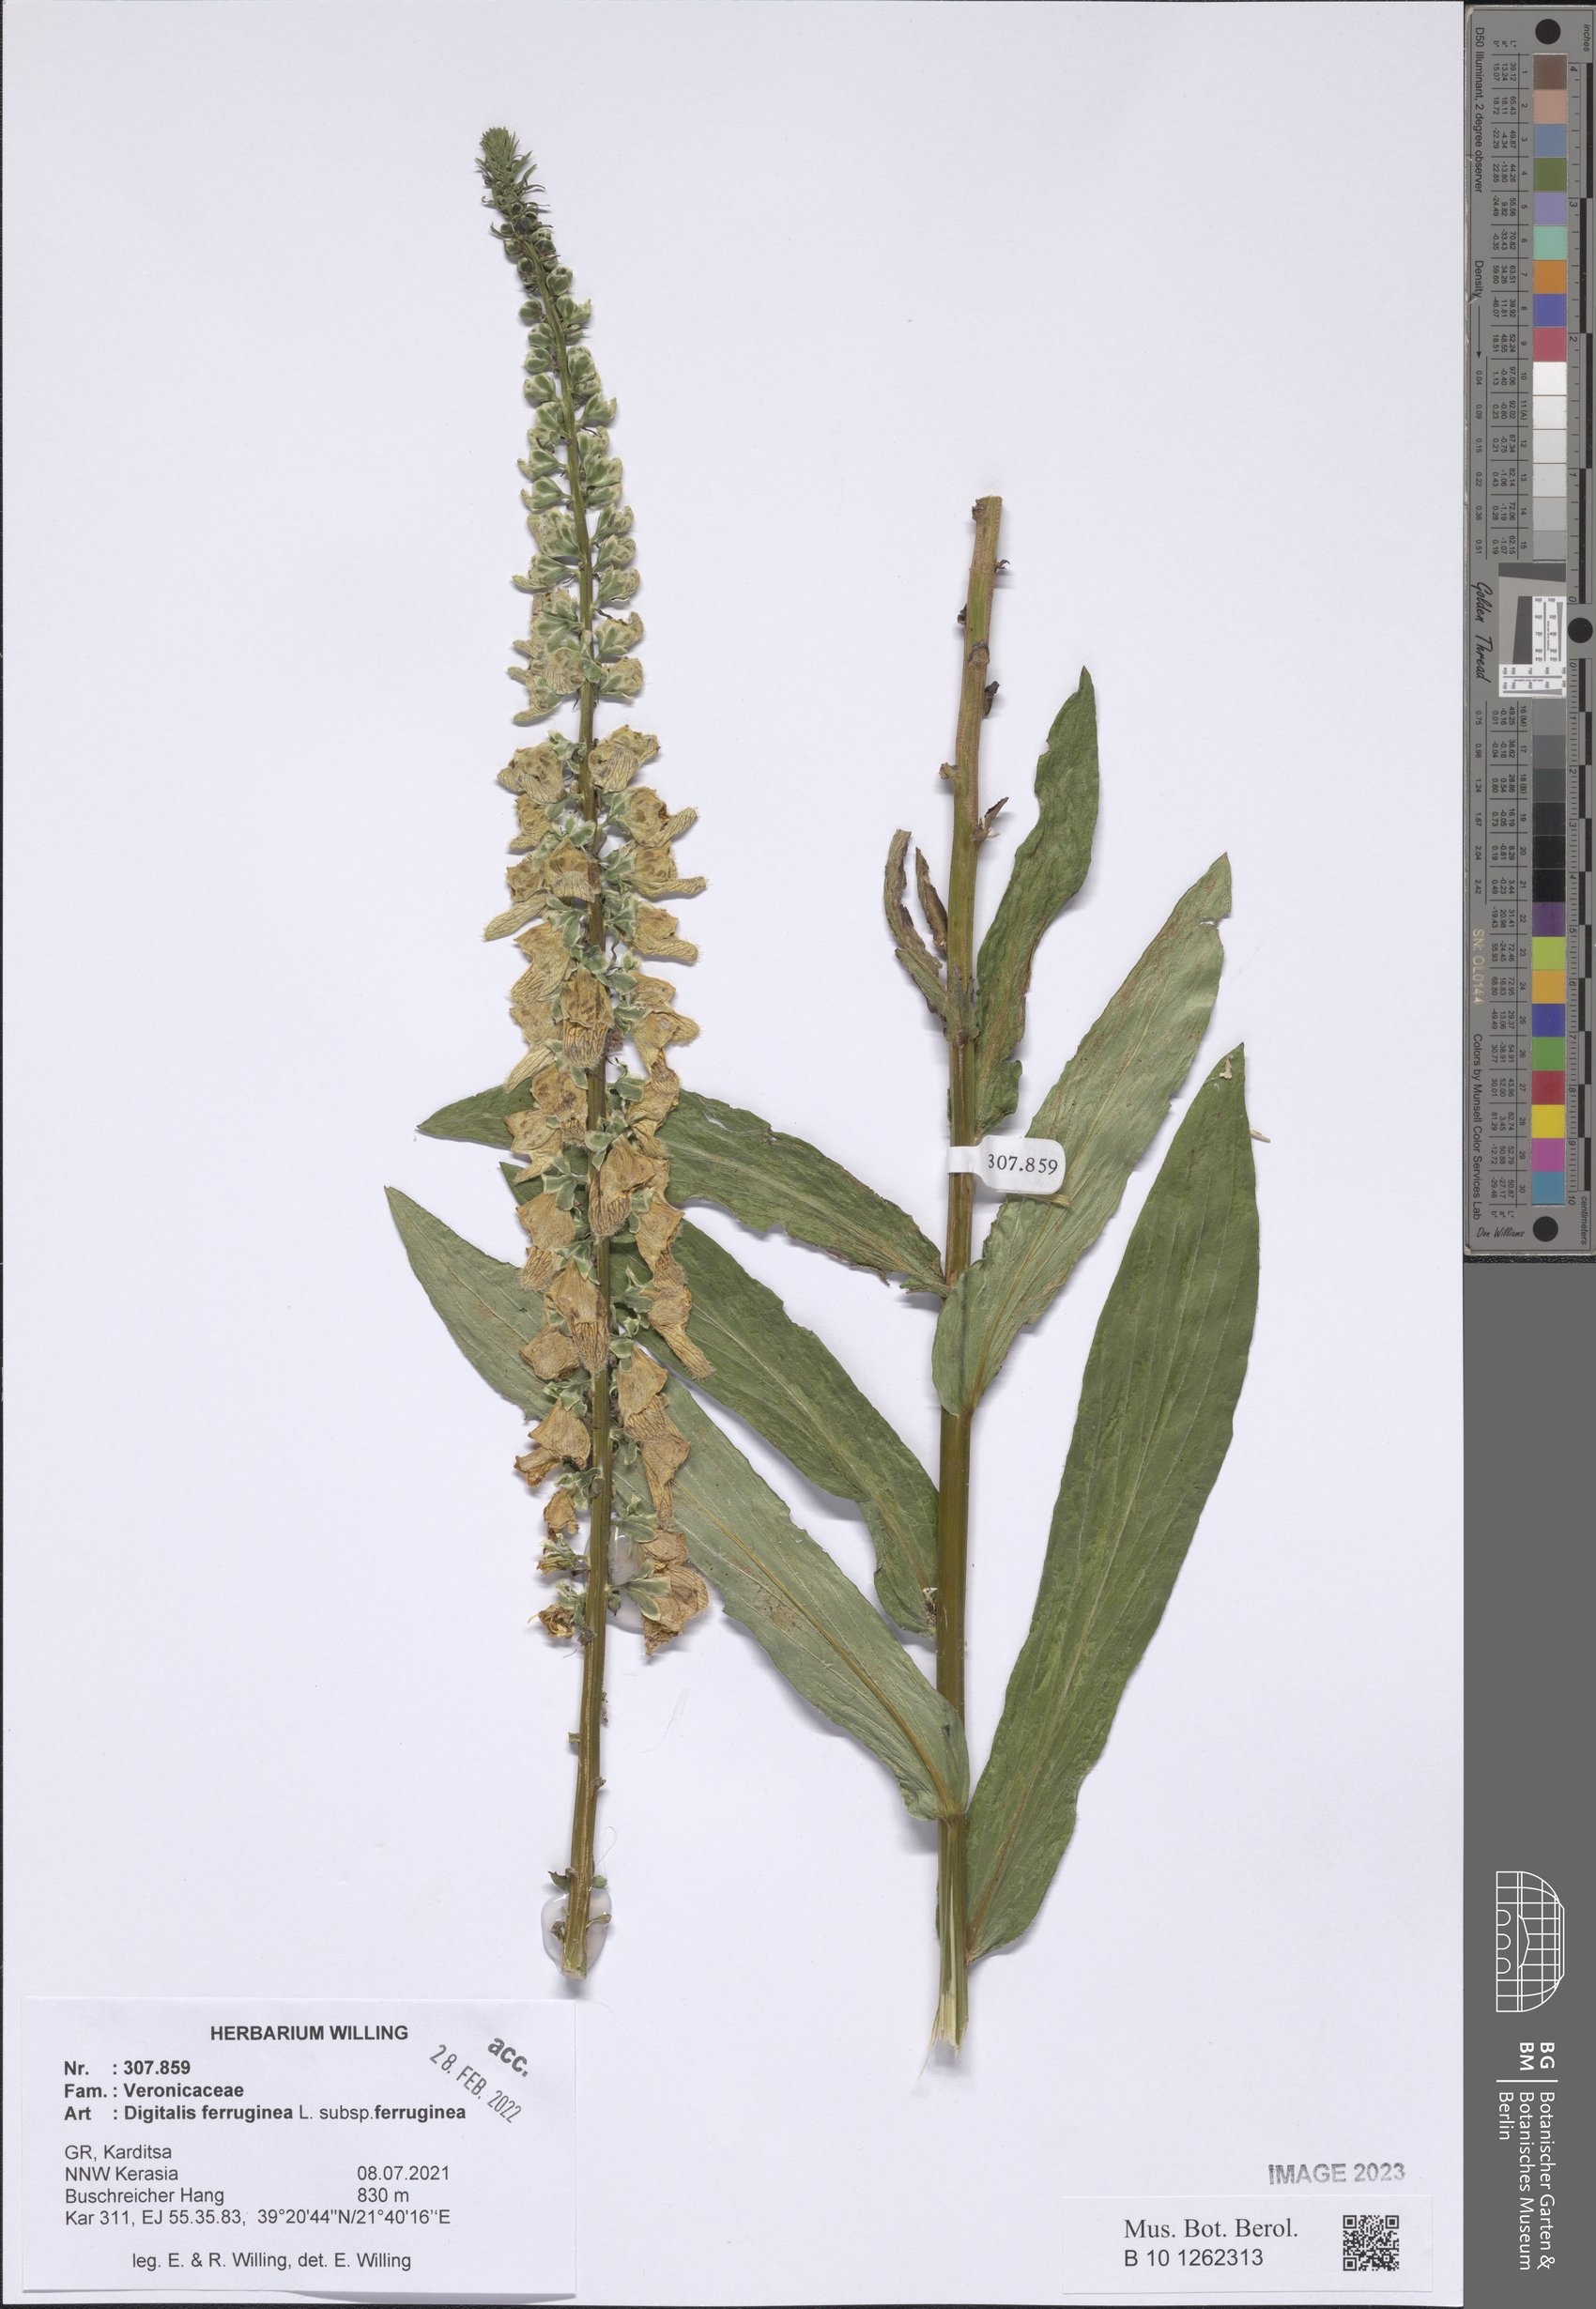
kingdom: Plantae
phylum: Tracheophyta
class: Magnoliopsida
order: Lamiales
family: Plantaginaceae
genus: Digitalis
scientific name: Digitalis ferruginea
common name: Rusty foxglove
